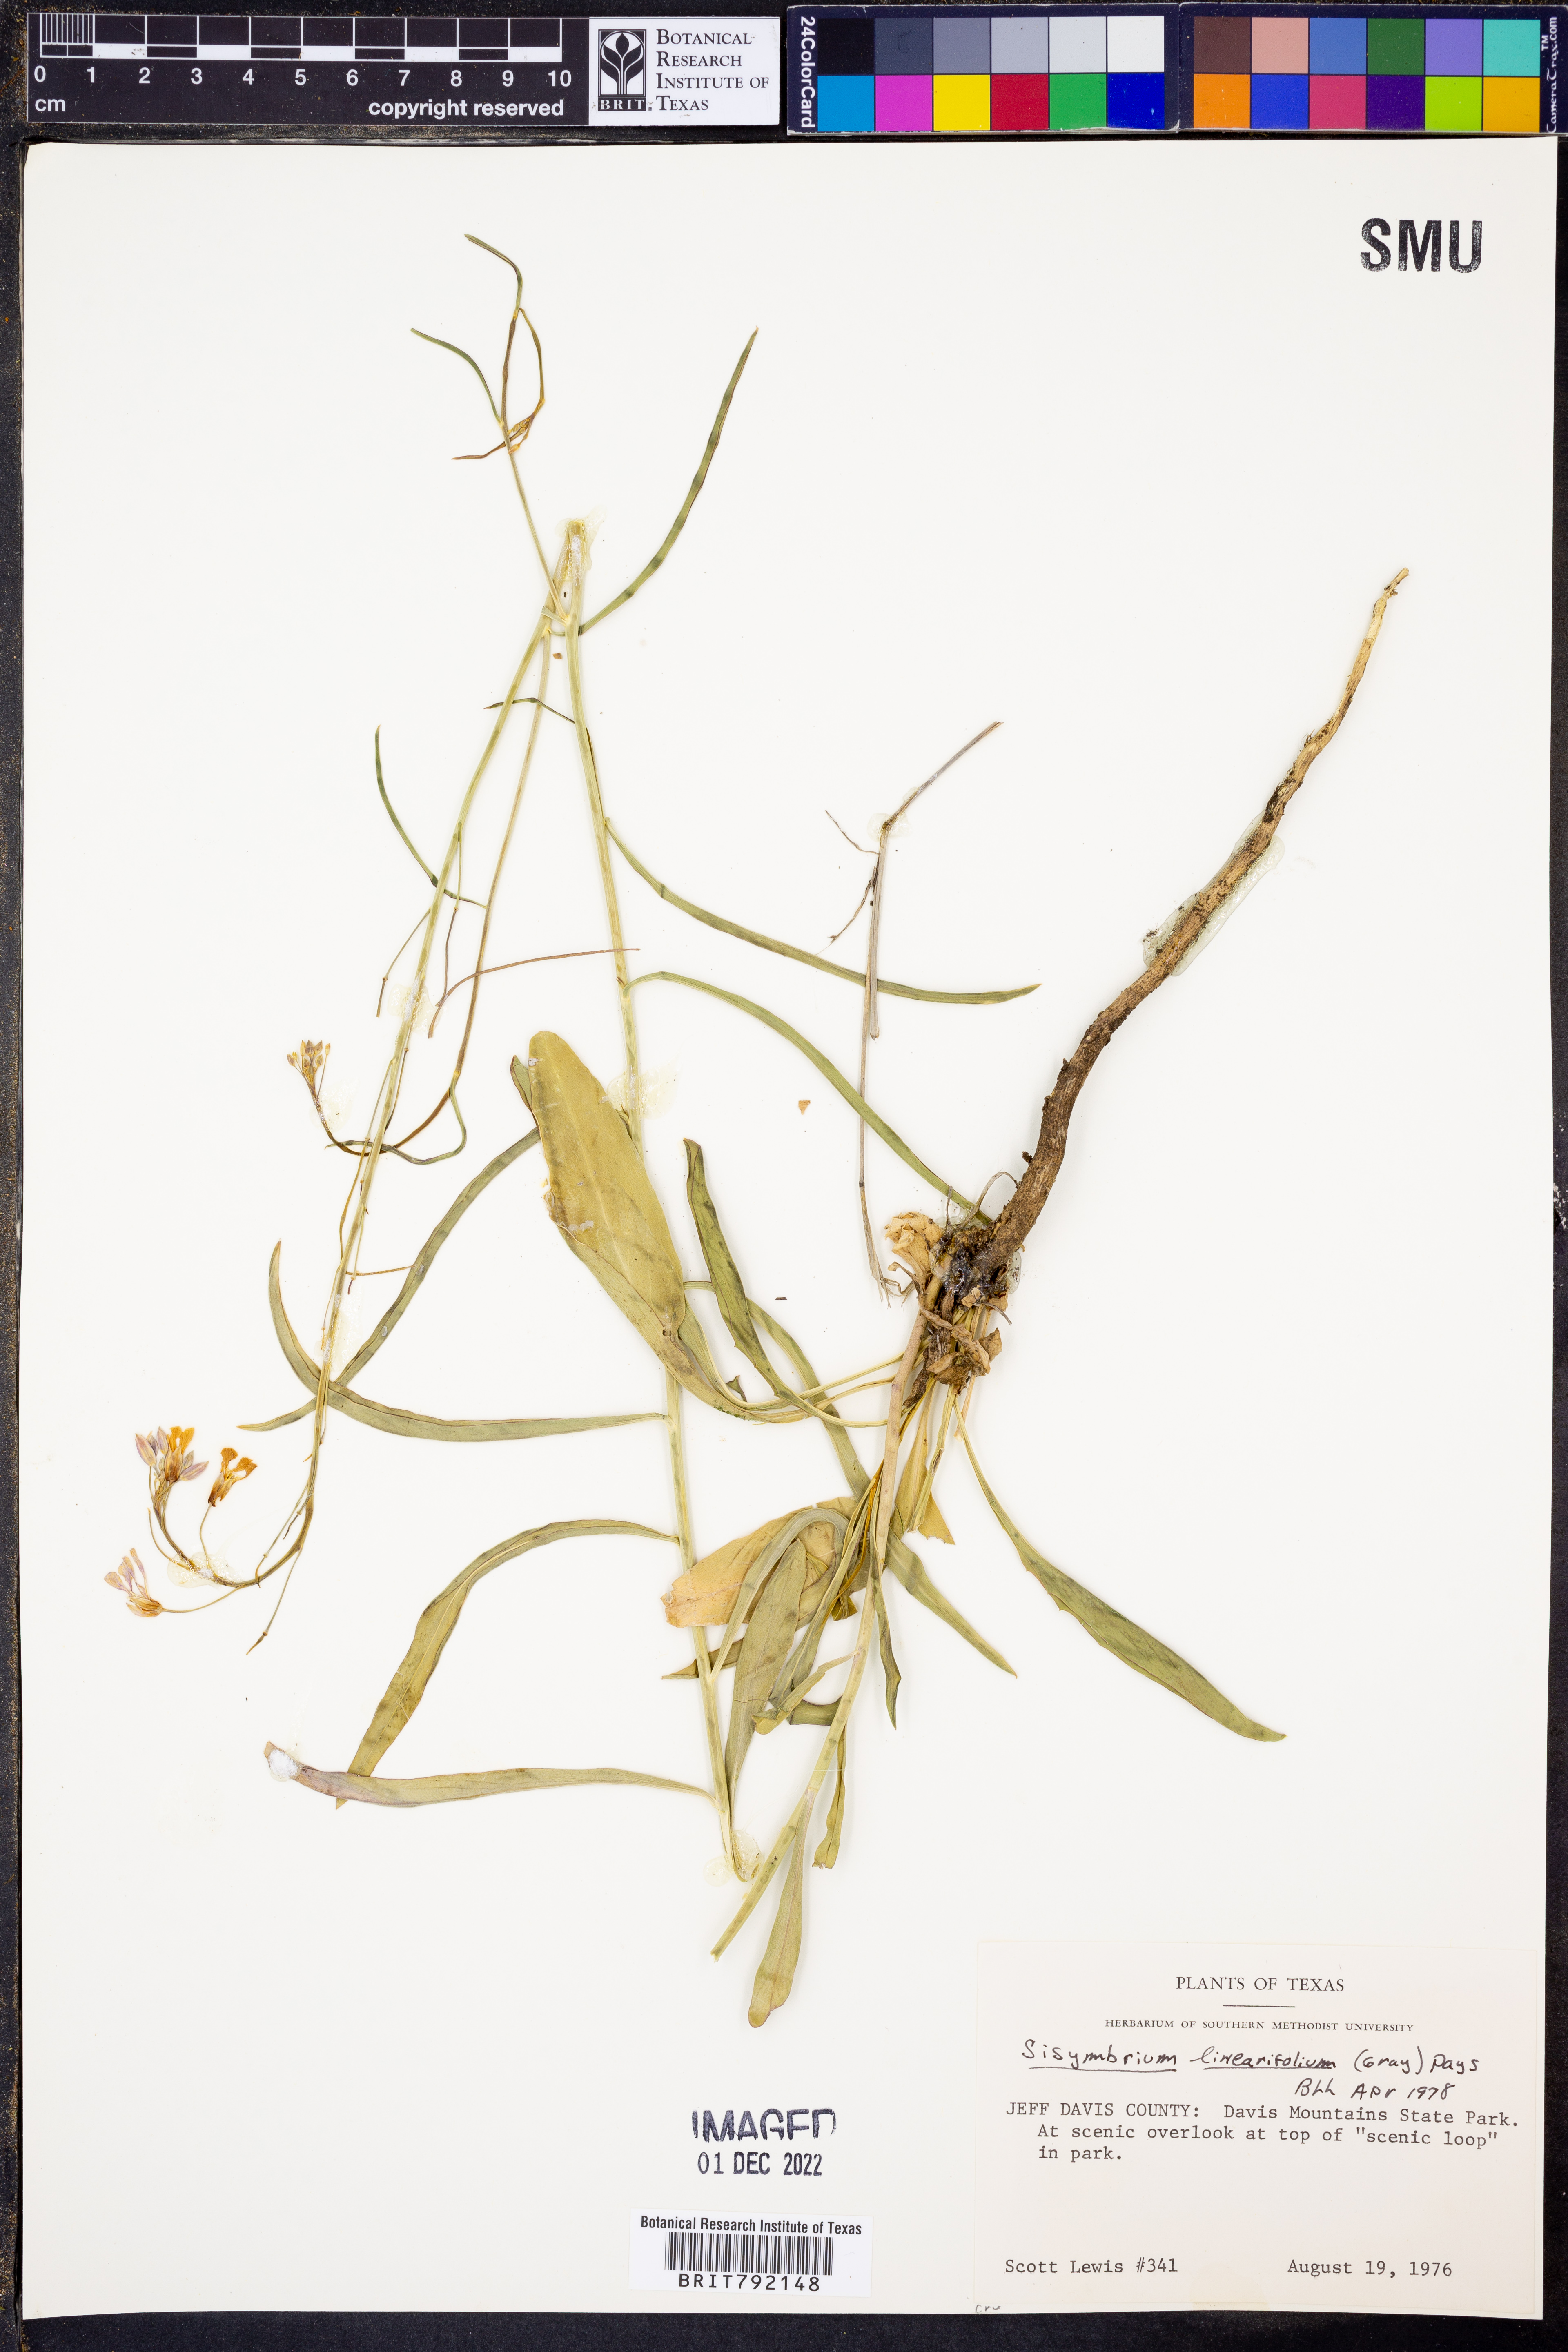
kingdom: Plantae
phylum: Tracheophyta
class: Magnoliopsida
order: Brassicales
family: Brassicaceae
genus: Hesperidanthus
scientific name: Hesperidanthus linearifolius
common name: Slim-leaf plains mustard
